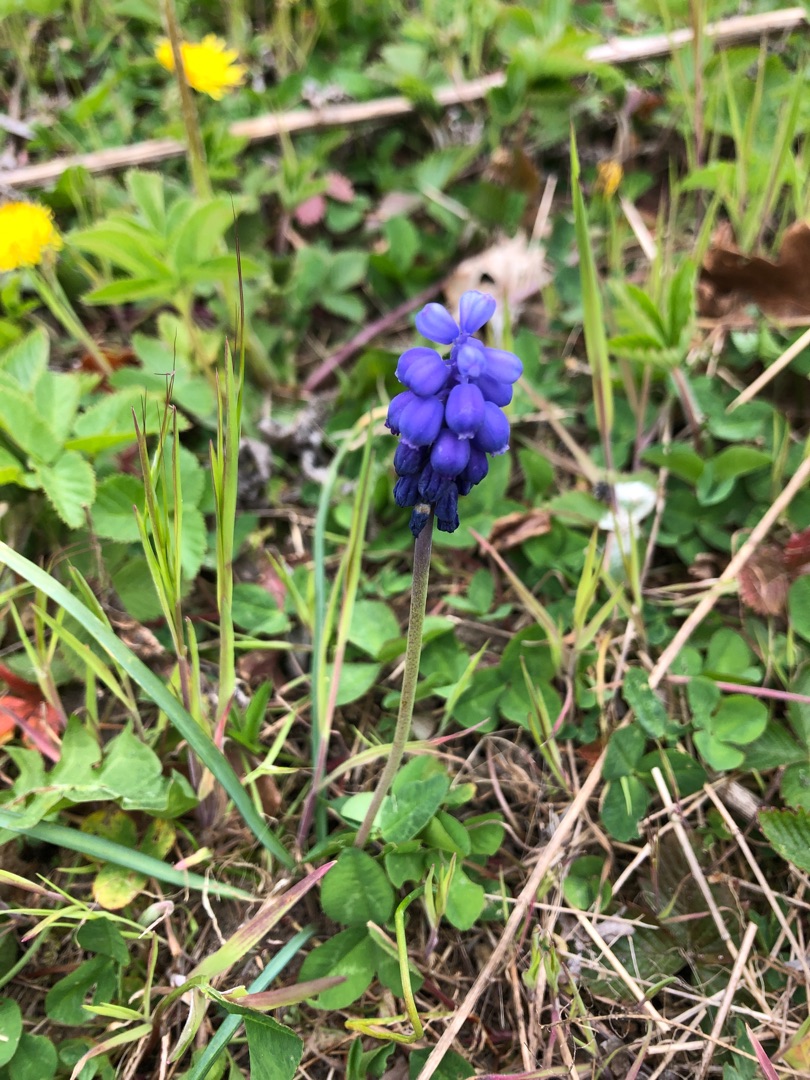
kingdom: Plantae
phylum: Tracheophyta
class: Liliopsida
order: Asparagales
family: Asparagaceae
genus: Muscari
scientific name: Muscari armeniacum
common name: Armensk perlehyacint
